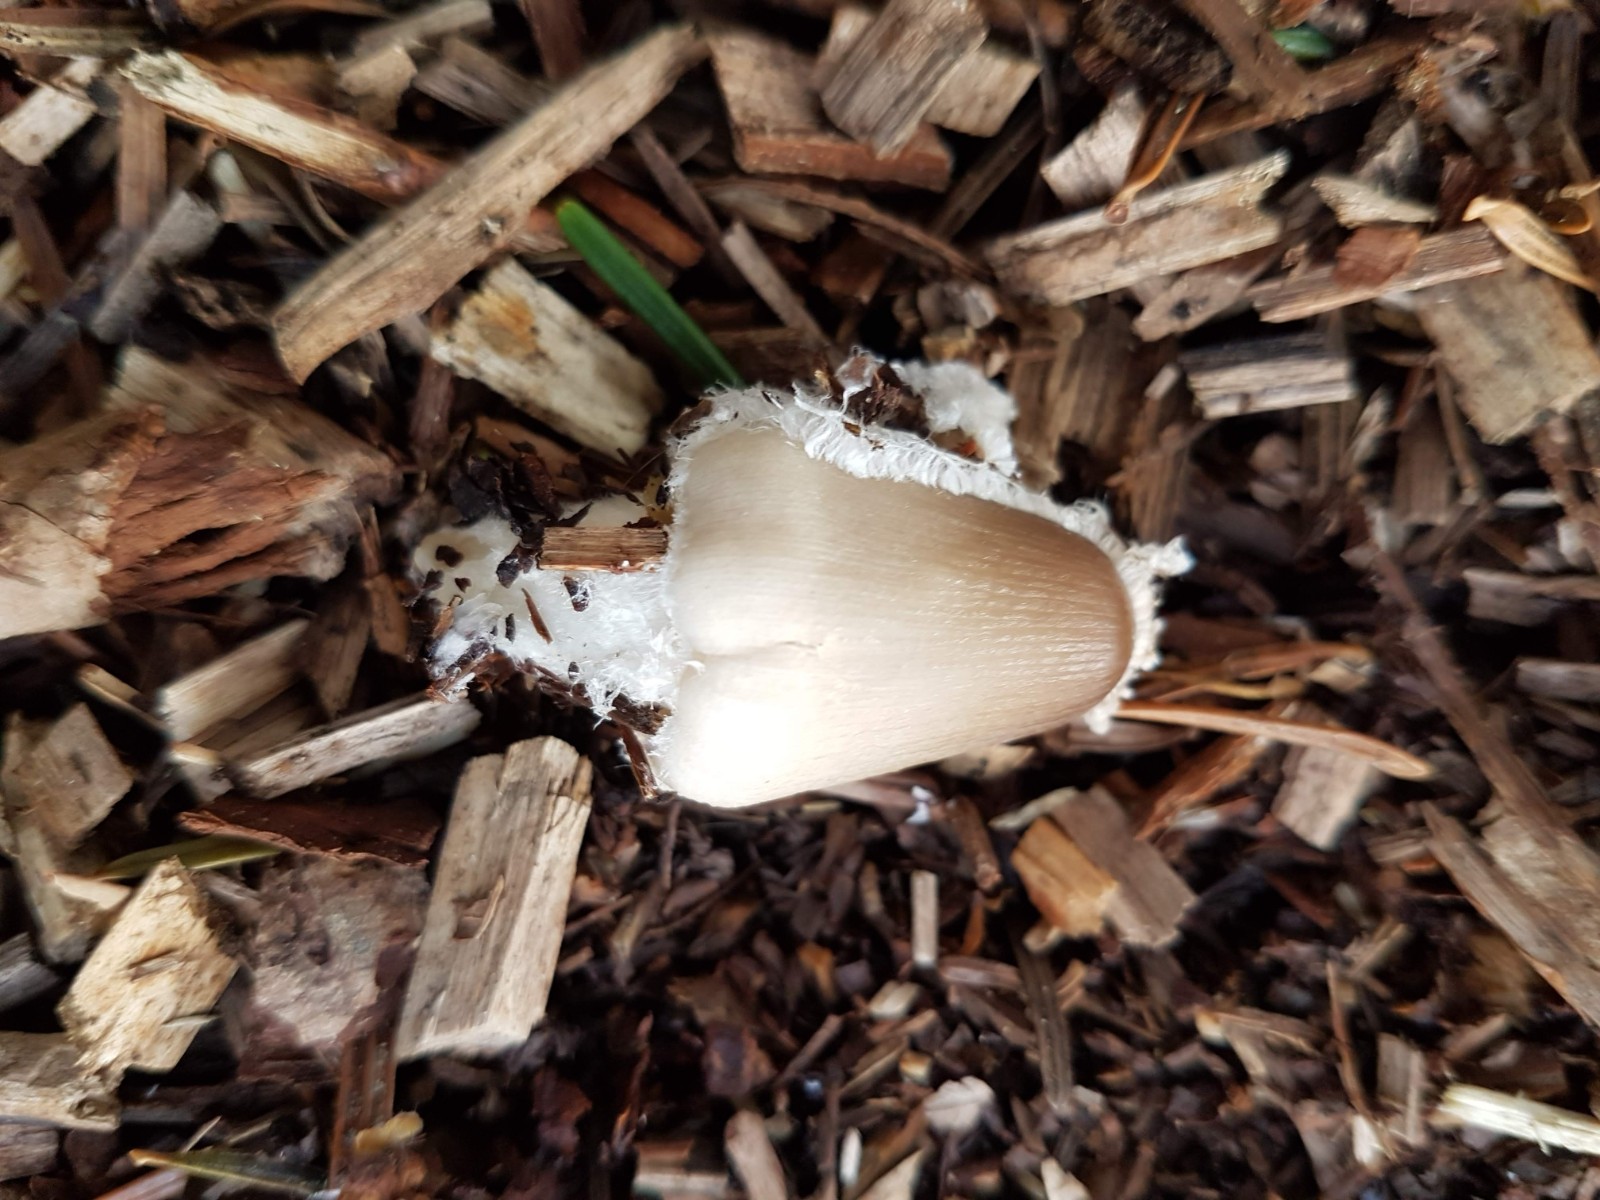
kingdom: Fungi
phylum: Basidiomycota
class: Agaricomycetes
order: Agaricales
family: Psathyrellaceae
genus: Coprinopsis
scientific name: Coprinopsis lagopus
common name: dunstokket blækhat
